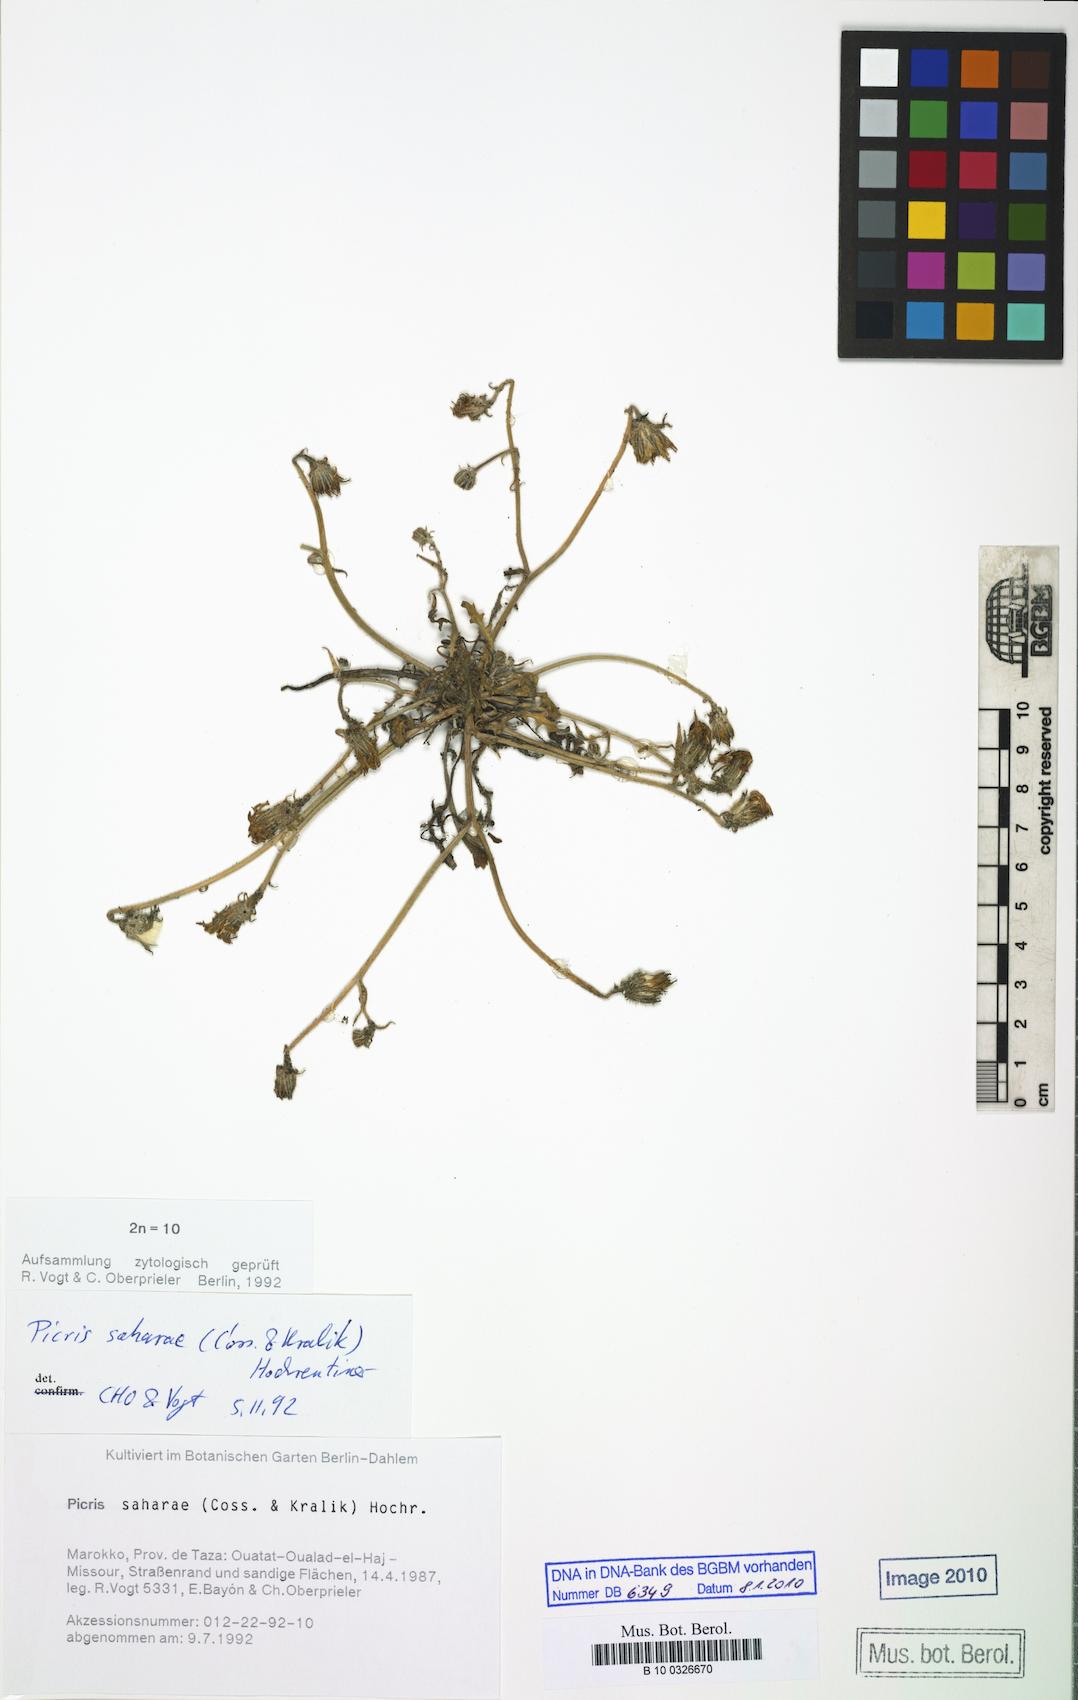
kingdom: Plantae
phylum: Tracheophyta
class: Magnoliopsida
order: Asterales
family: Asteraceae
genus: Picris
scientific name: Picris asplenioides
